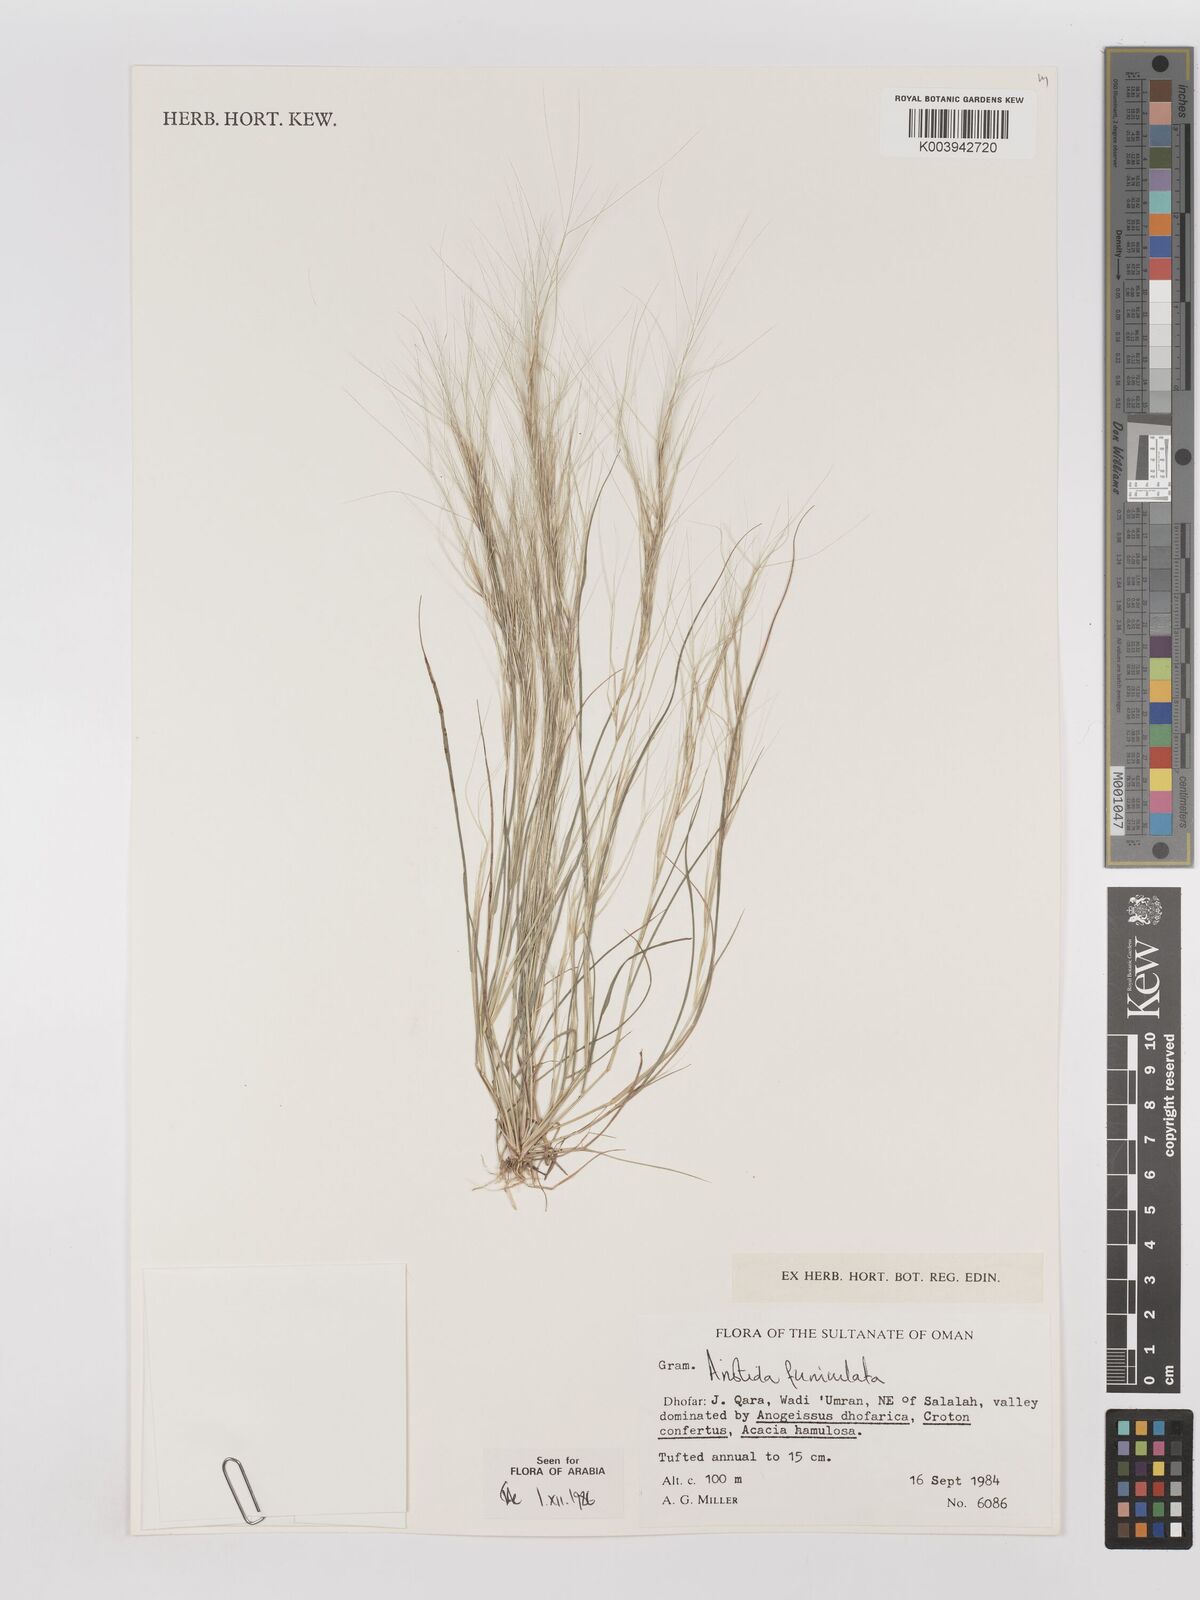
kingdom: Plantae
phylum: Tracheophyta
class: Liliopsida
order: Poales
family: Poaceae
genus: Aristida
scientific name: Aristida funiculata
